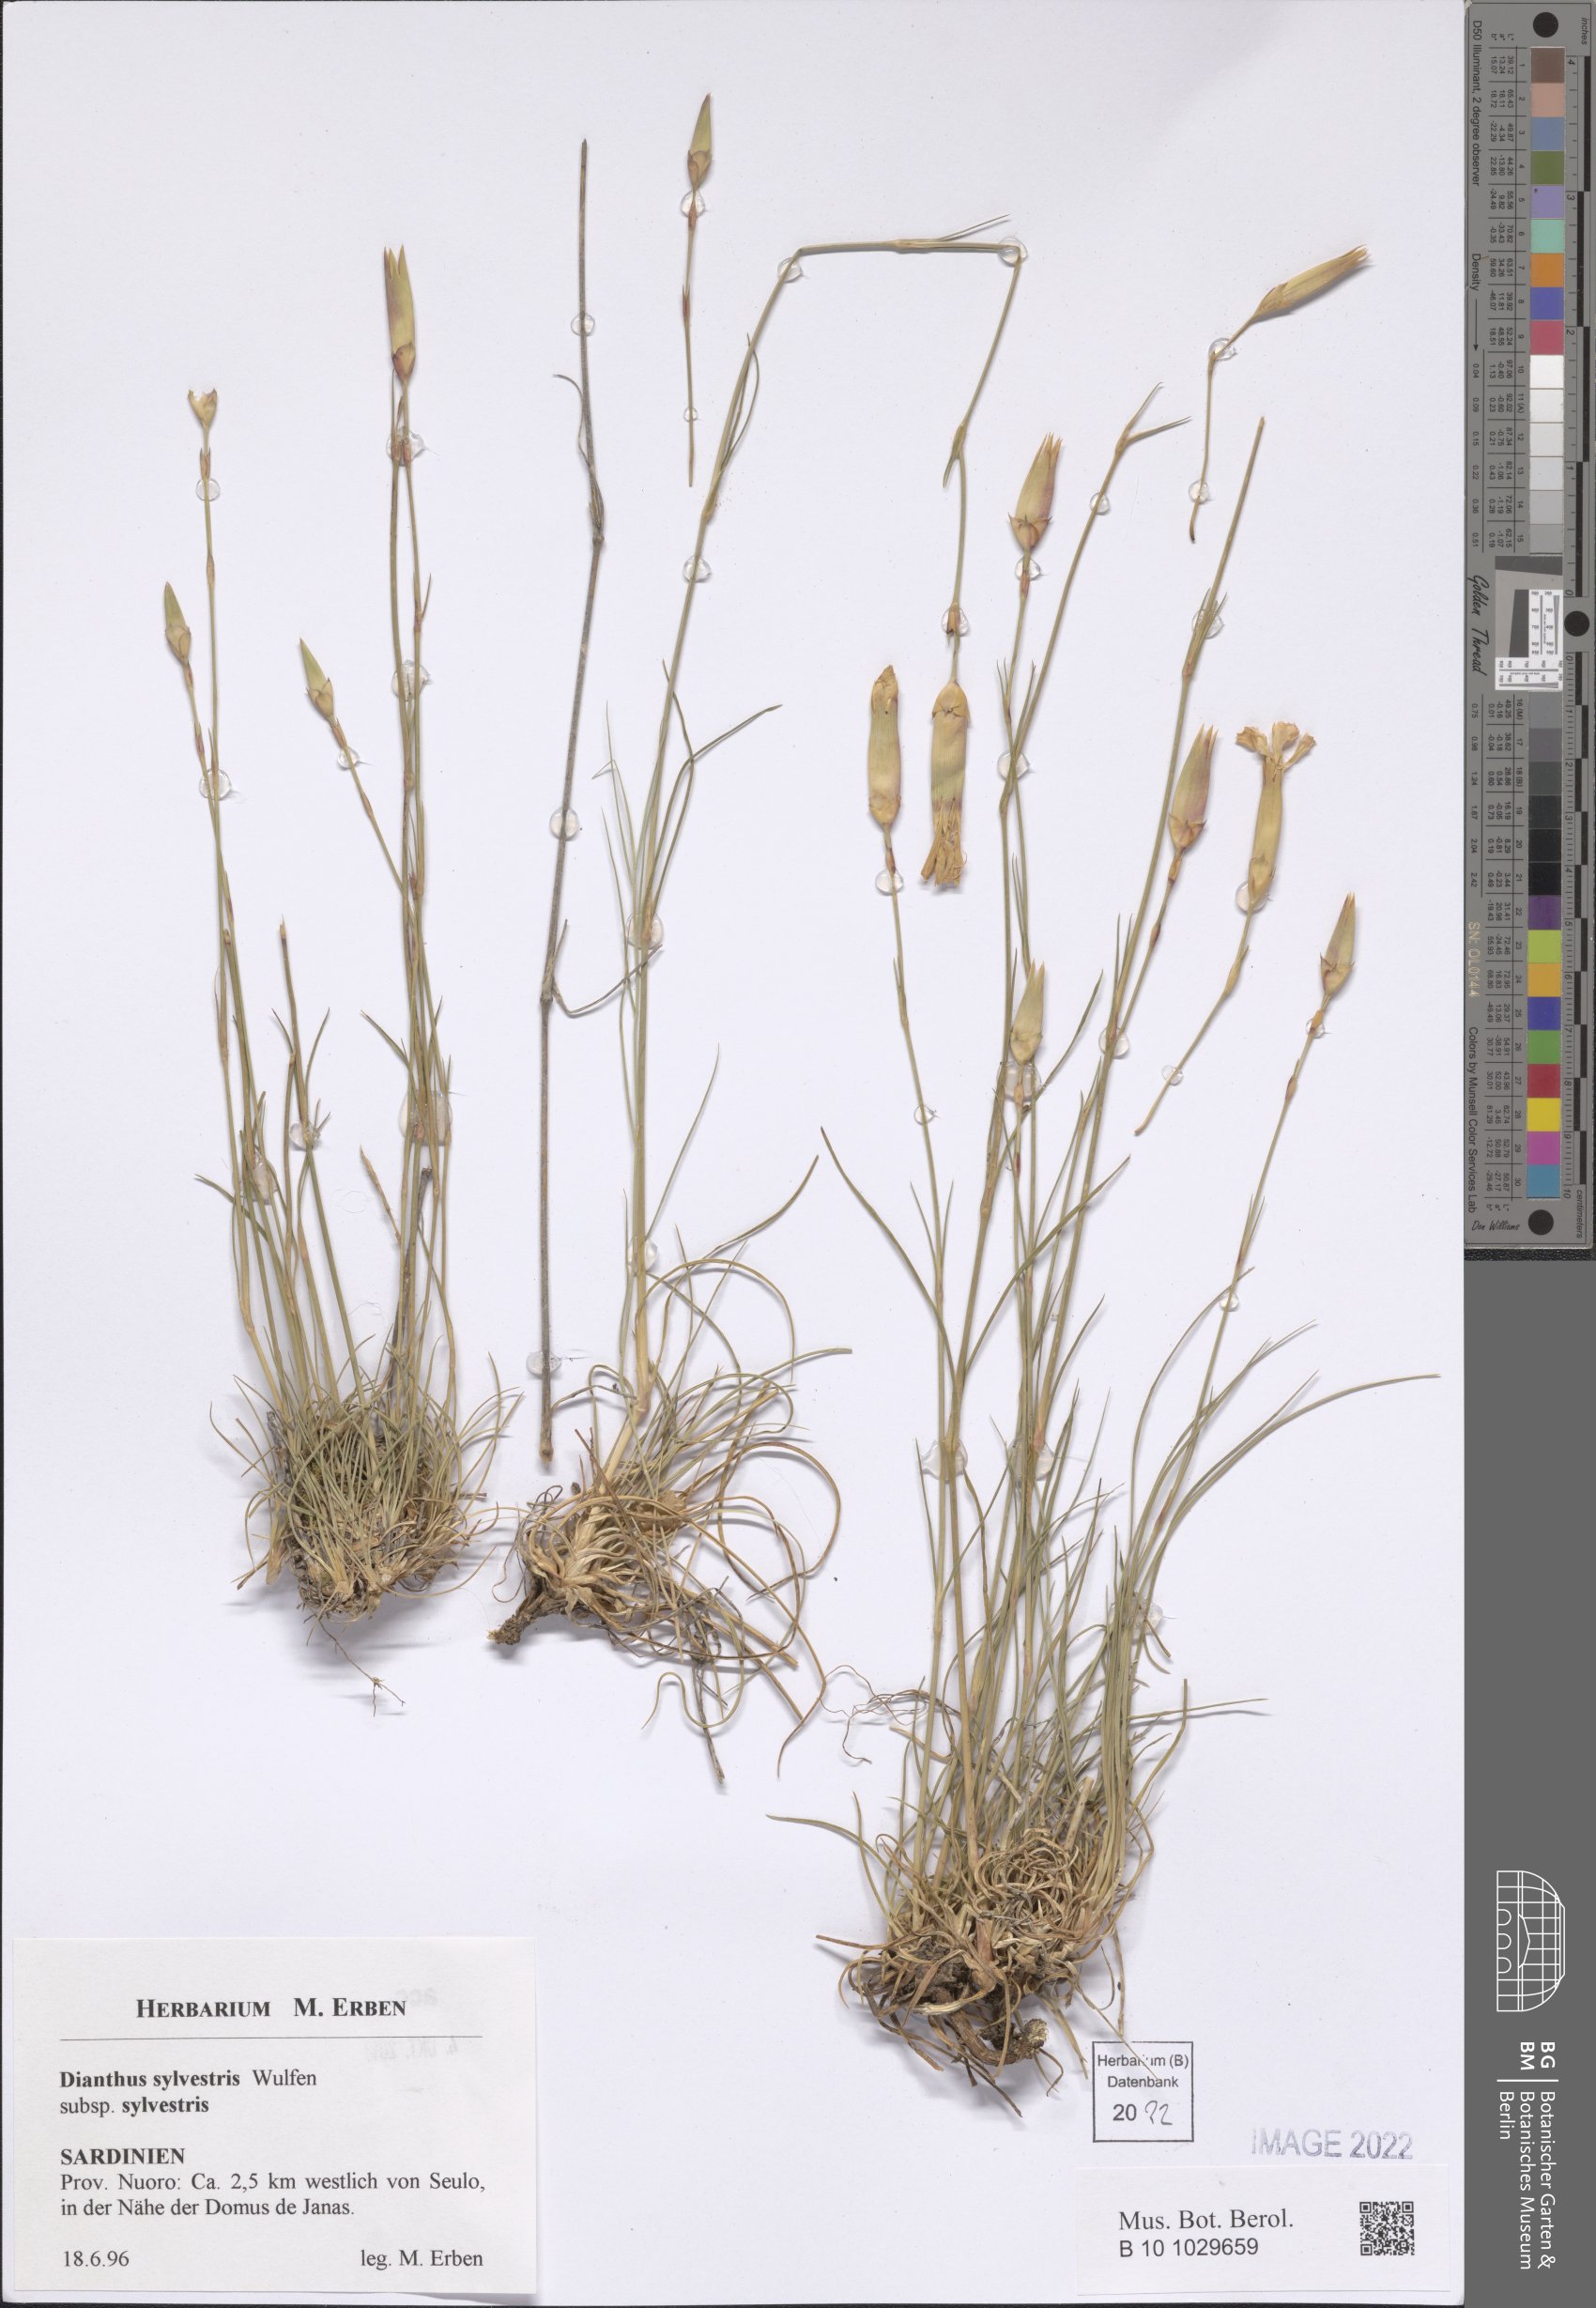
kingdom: Plantae
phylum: Tracheophyta
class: Magnoliopsida
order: Caryophyllales
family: Caryophyllaceae
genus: Dianthus
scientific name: Dianthus sylvestris
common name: Wood pink
